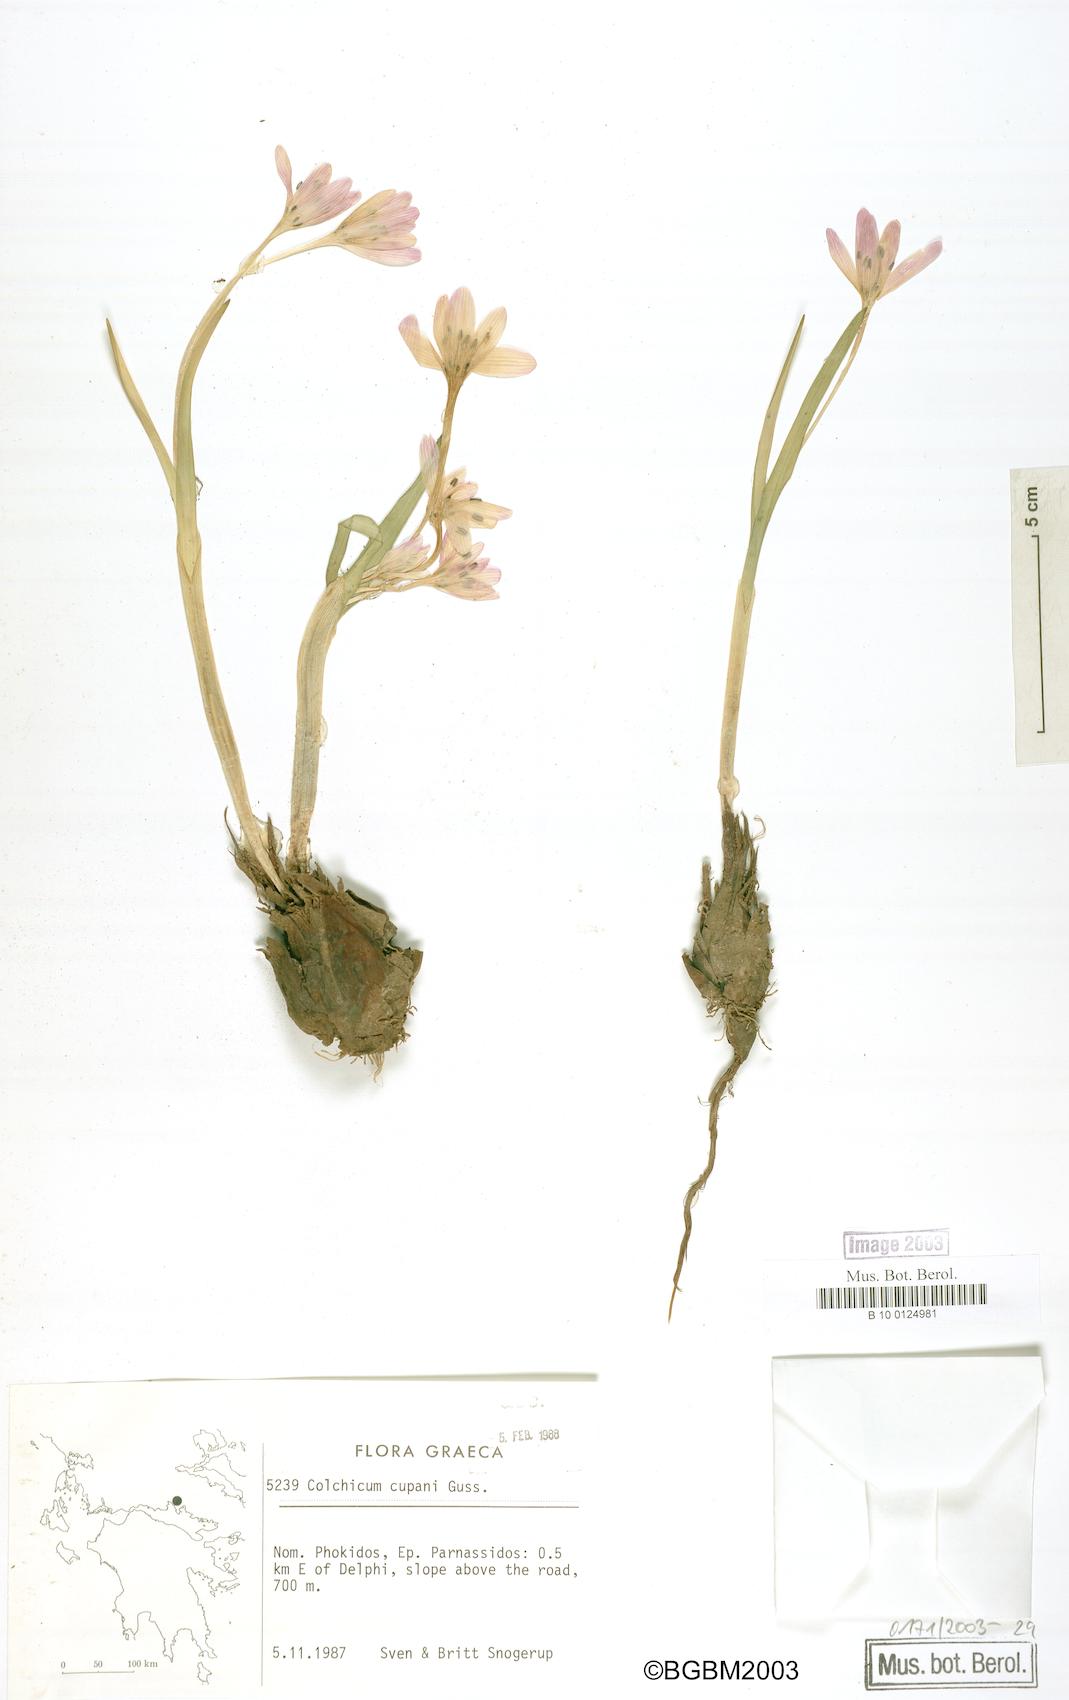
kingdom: Plantae
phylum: Tracheophyta
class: Liliopsida
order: Liliales
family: Colchicaceae
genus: Colchicum
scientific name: Colchicum cupanii
